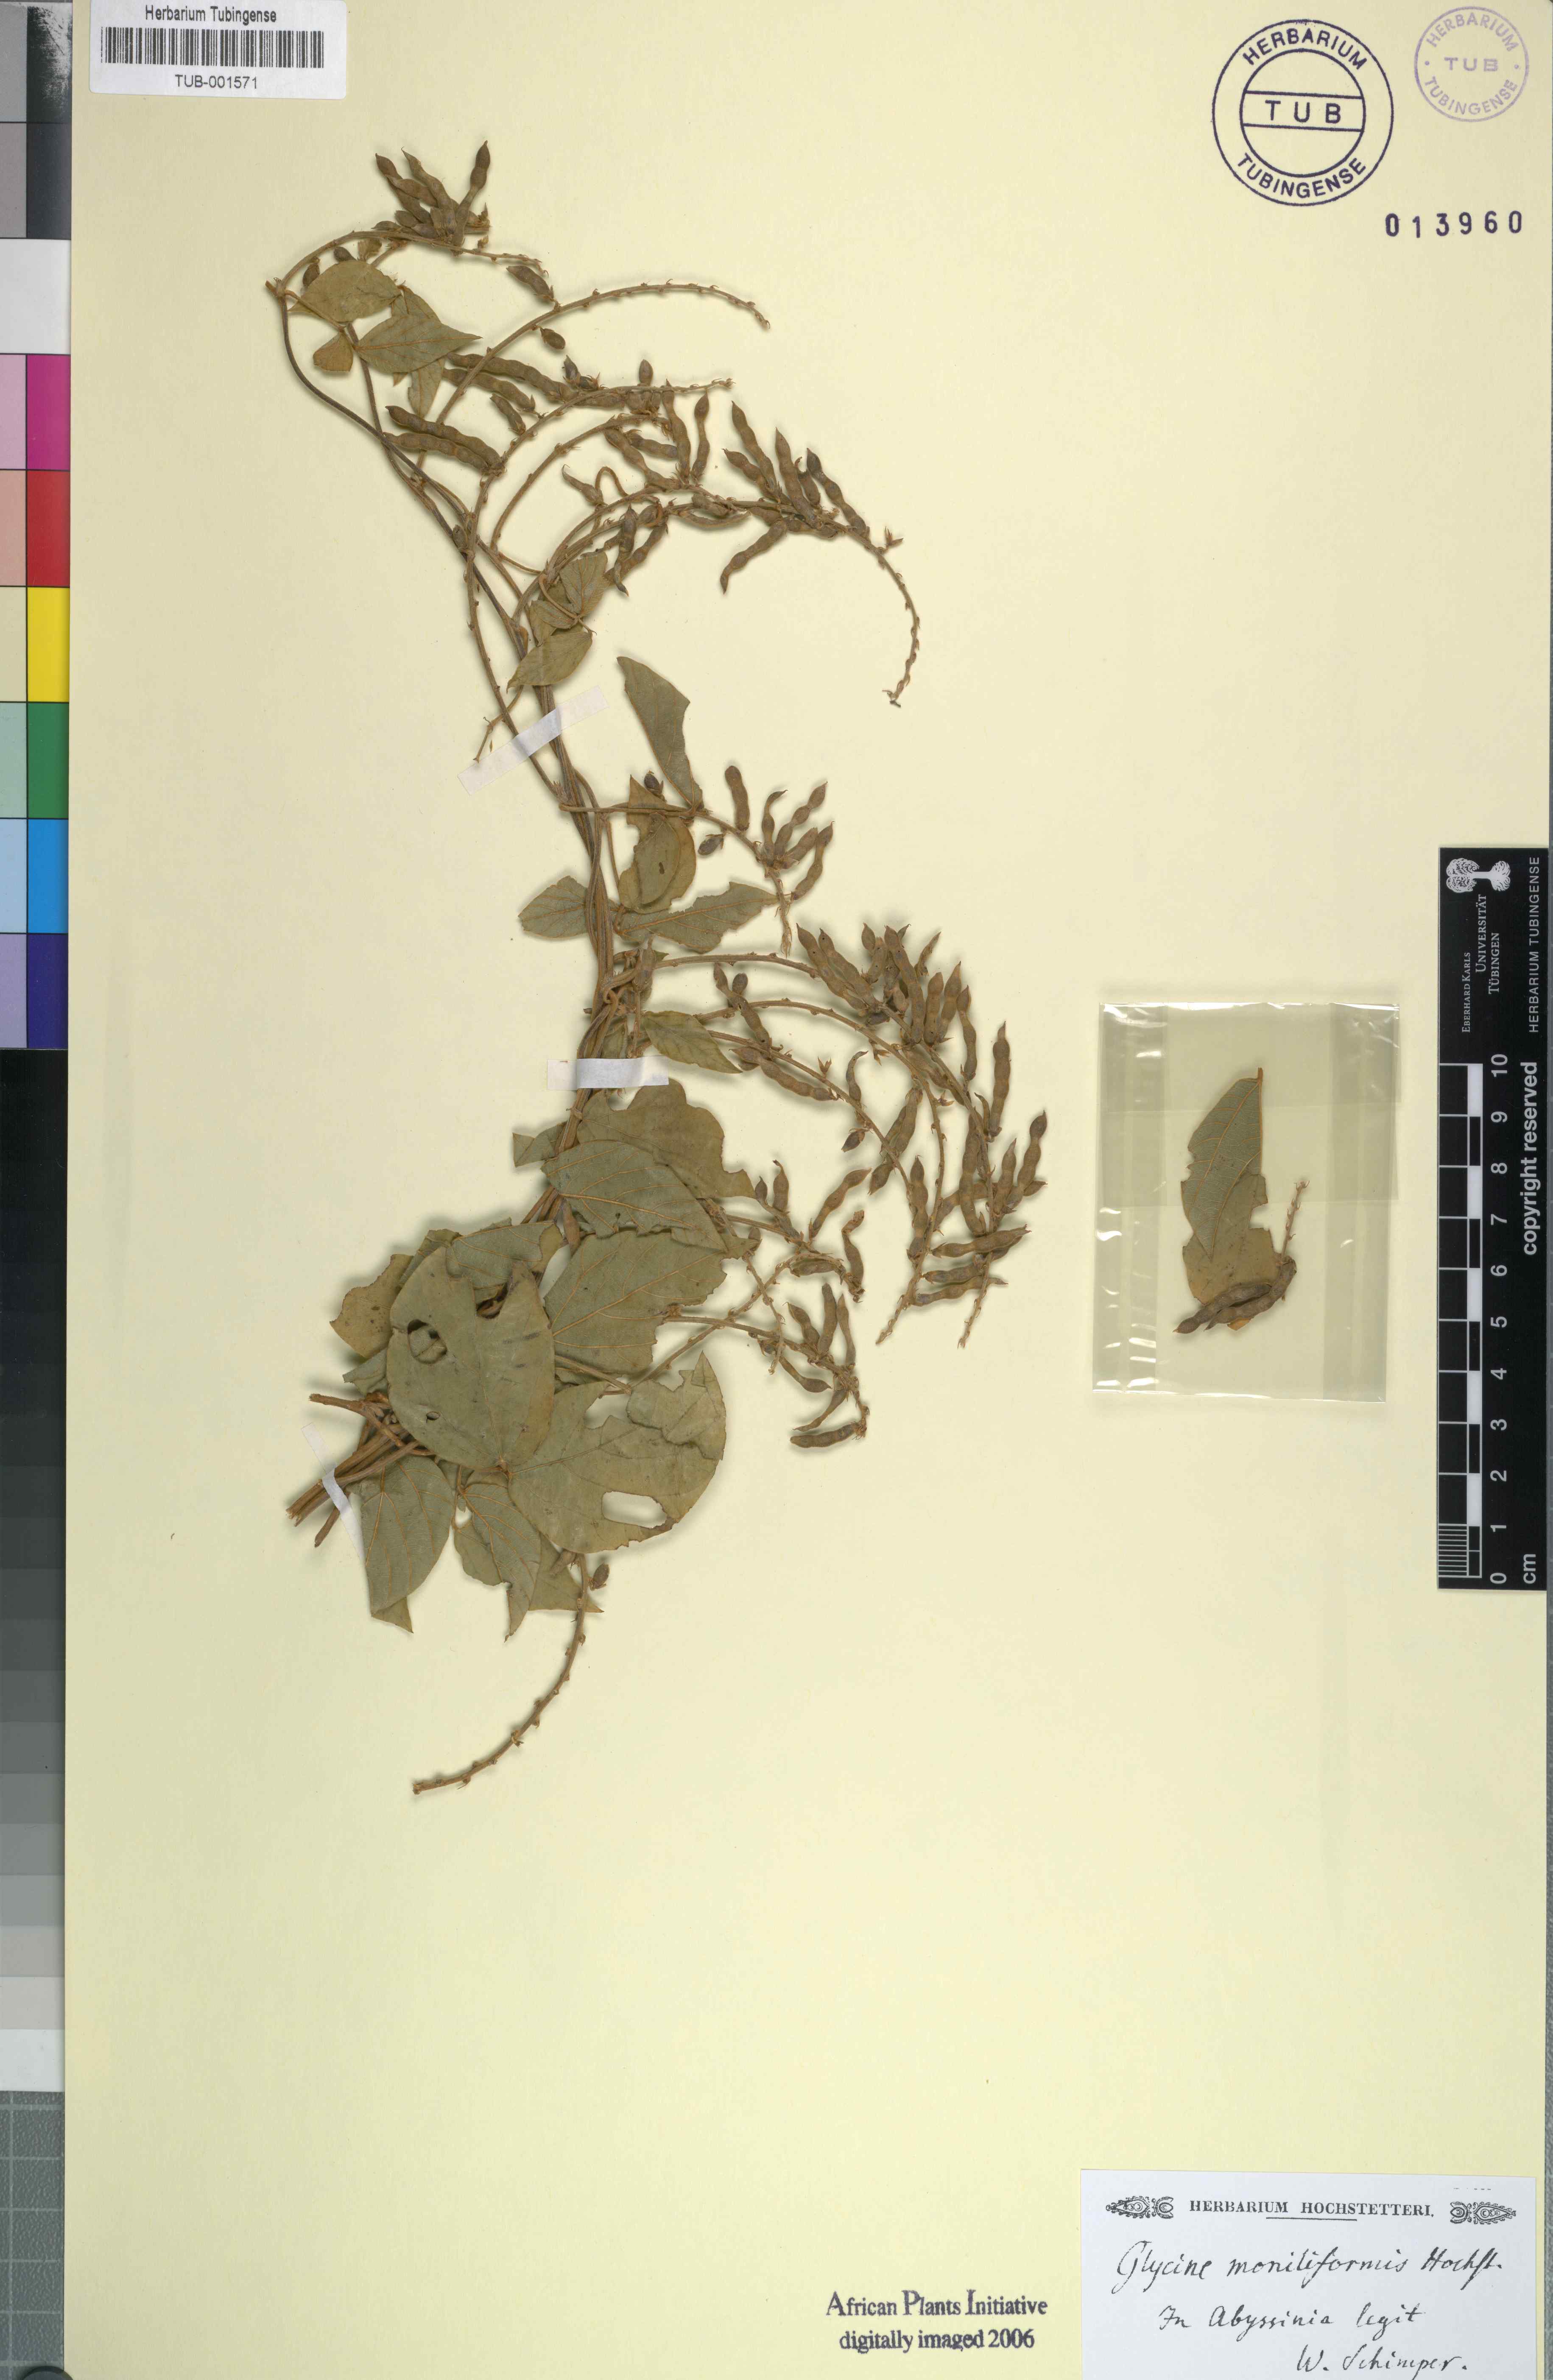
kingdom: Plantae
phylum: Tracheophyta
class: Magnoliopsida
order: Fabales
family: Fabaceae
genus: Pueraria
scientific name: Pueraria montana
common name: Kudzu
